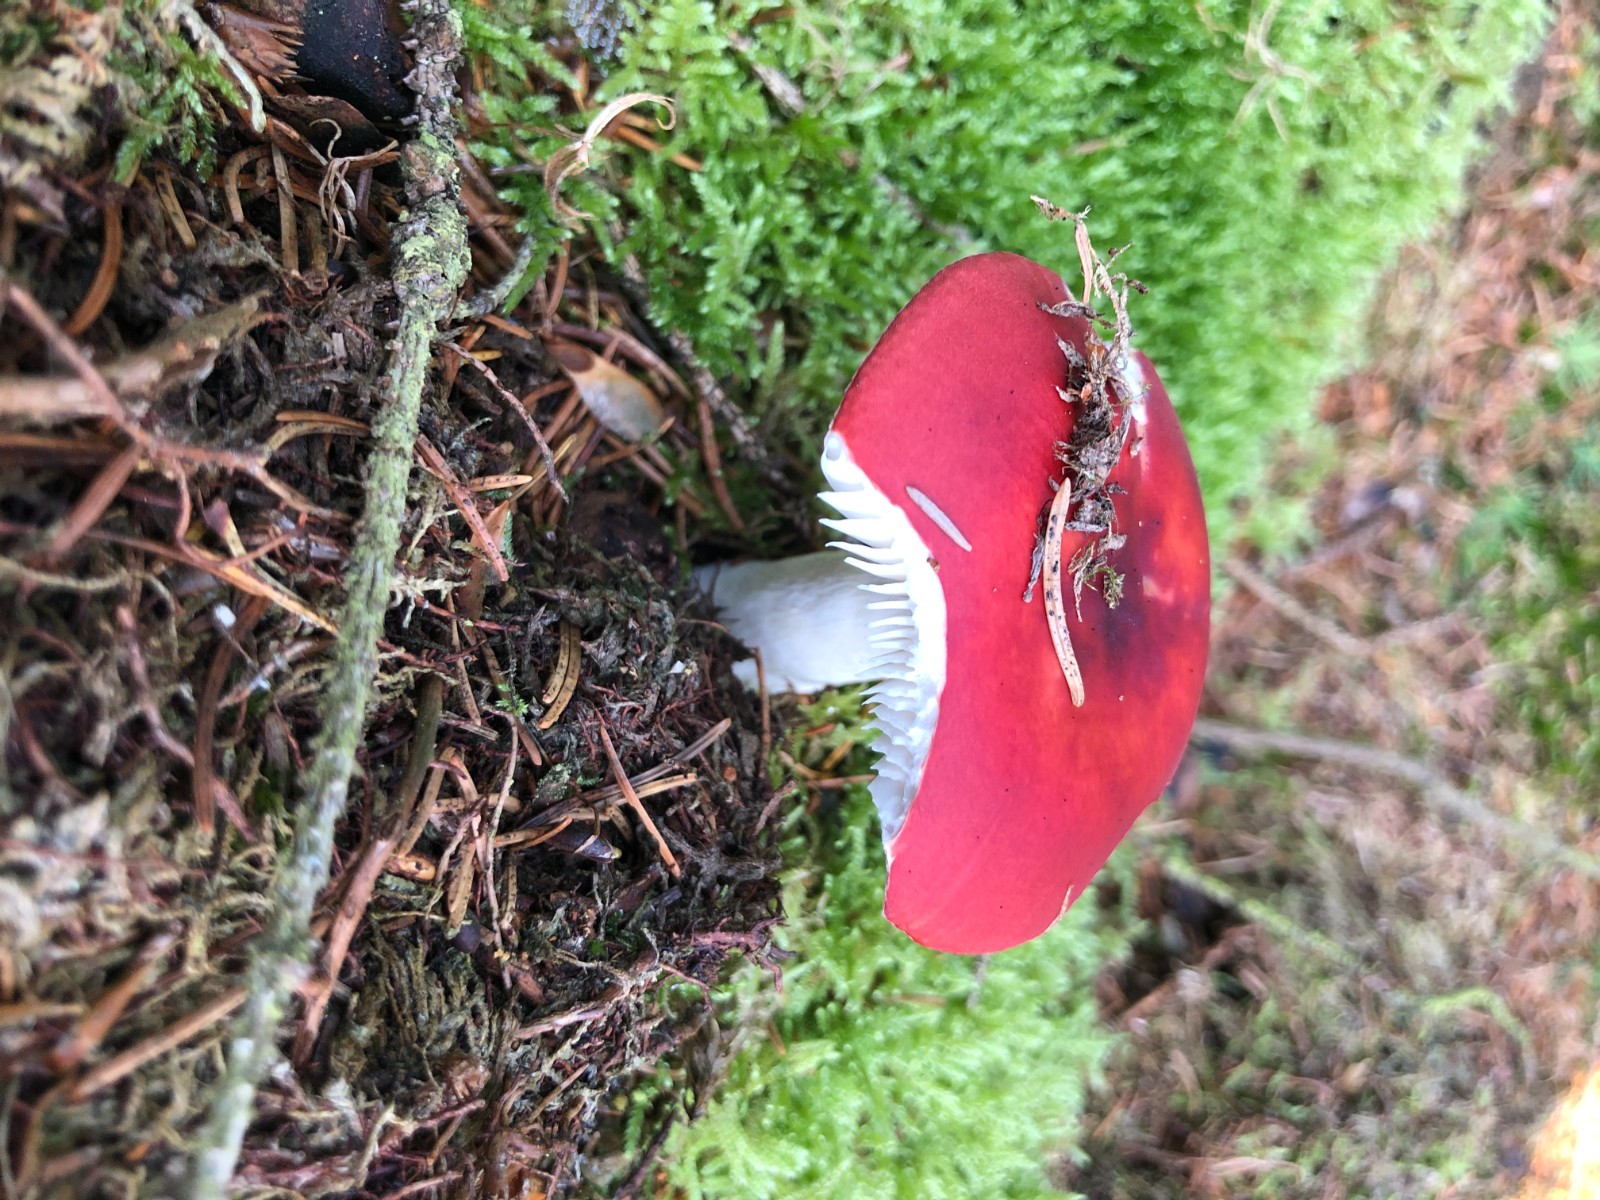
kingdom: Fungi
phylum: Basidiomycota
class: Agaricomycetes
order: Russulales
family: Russulaceae
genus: Russula
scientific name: Russula emetica
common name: stor gift-skørhat
